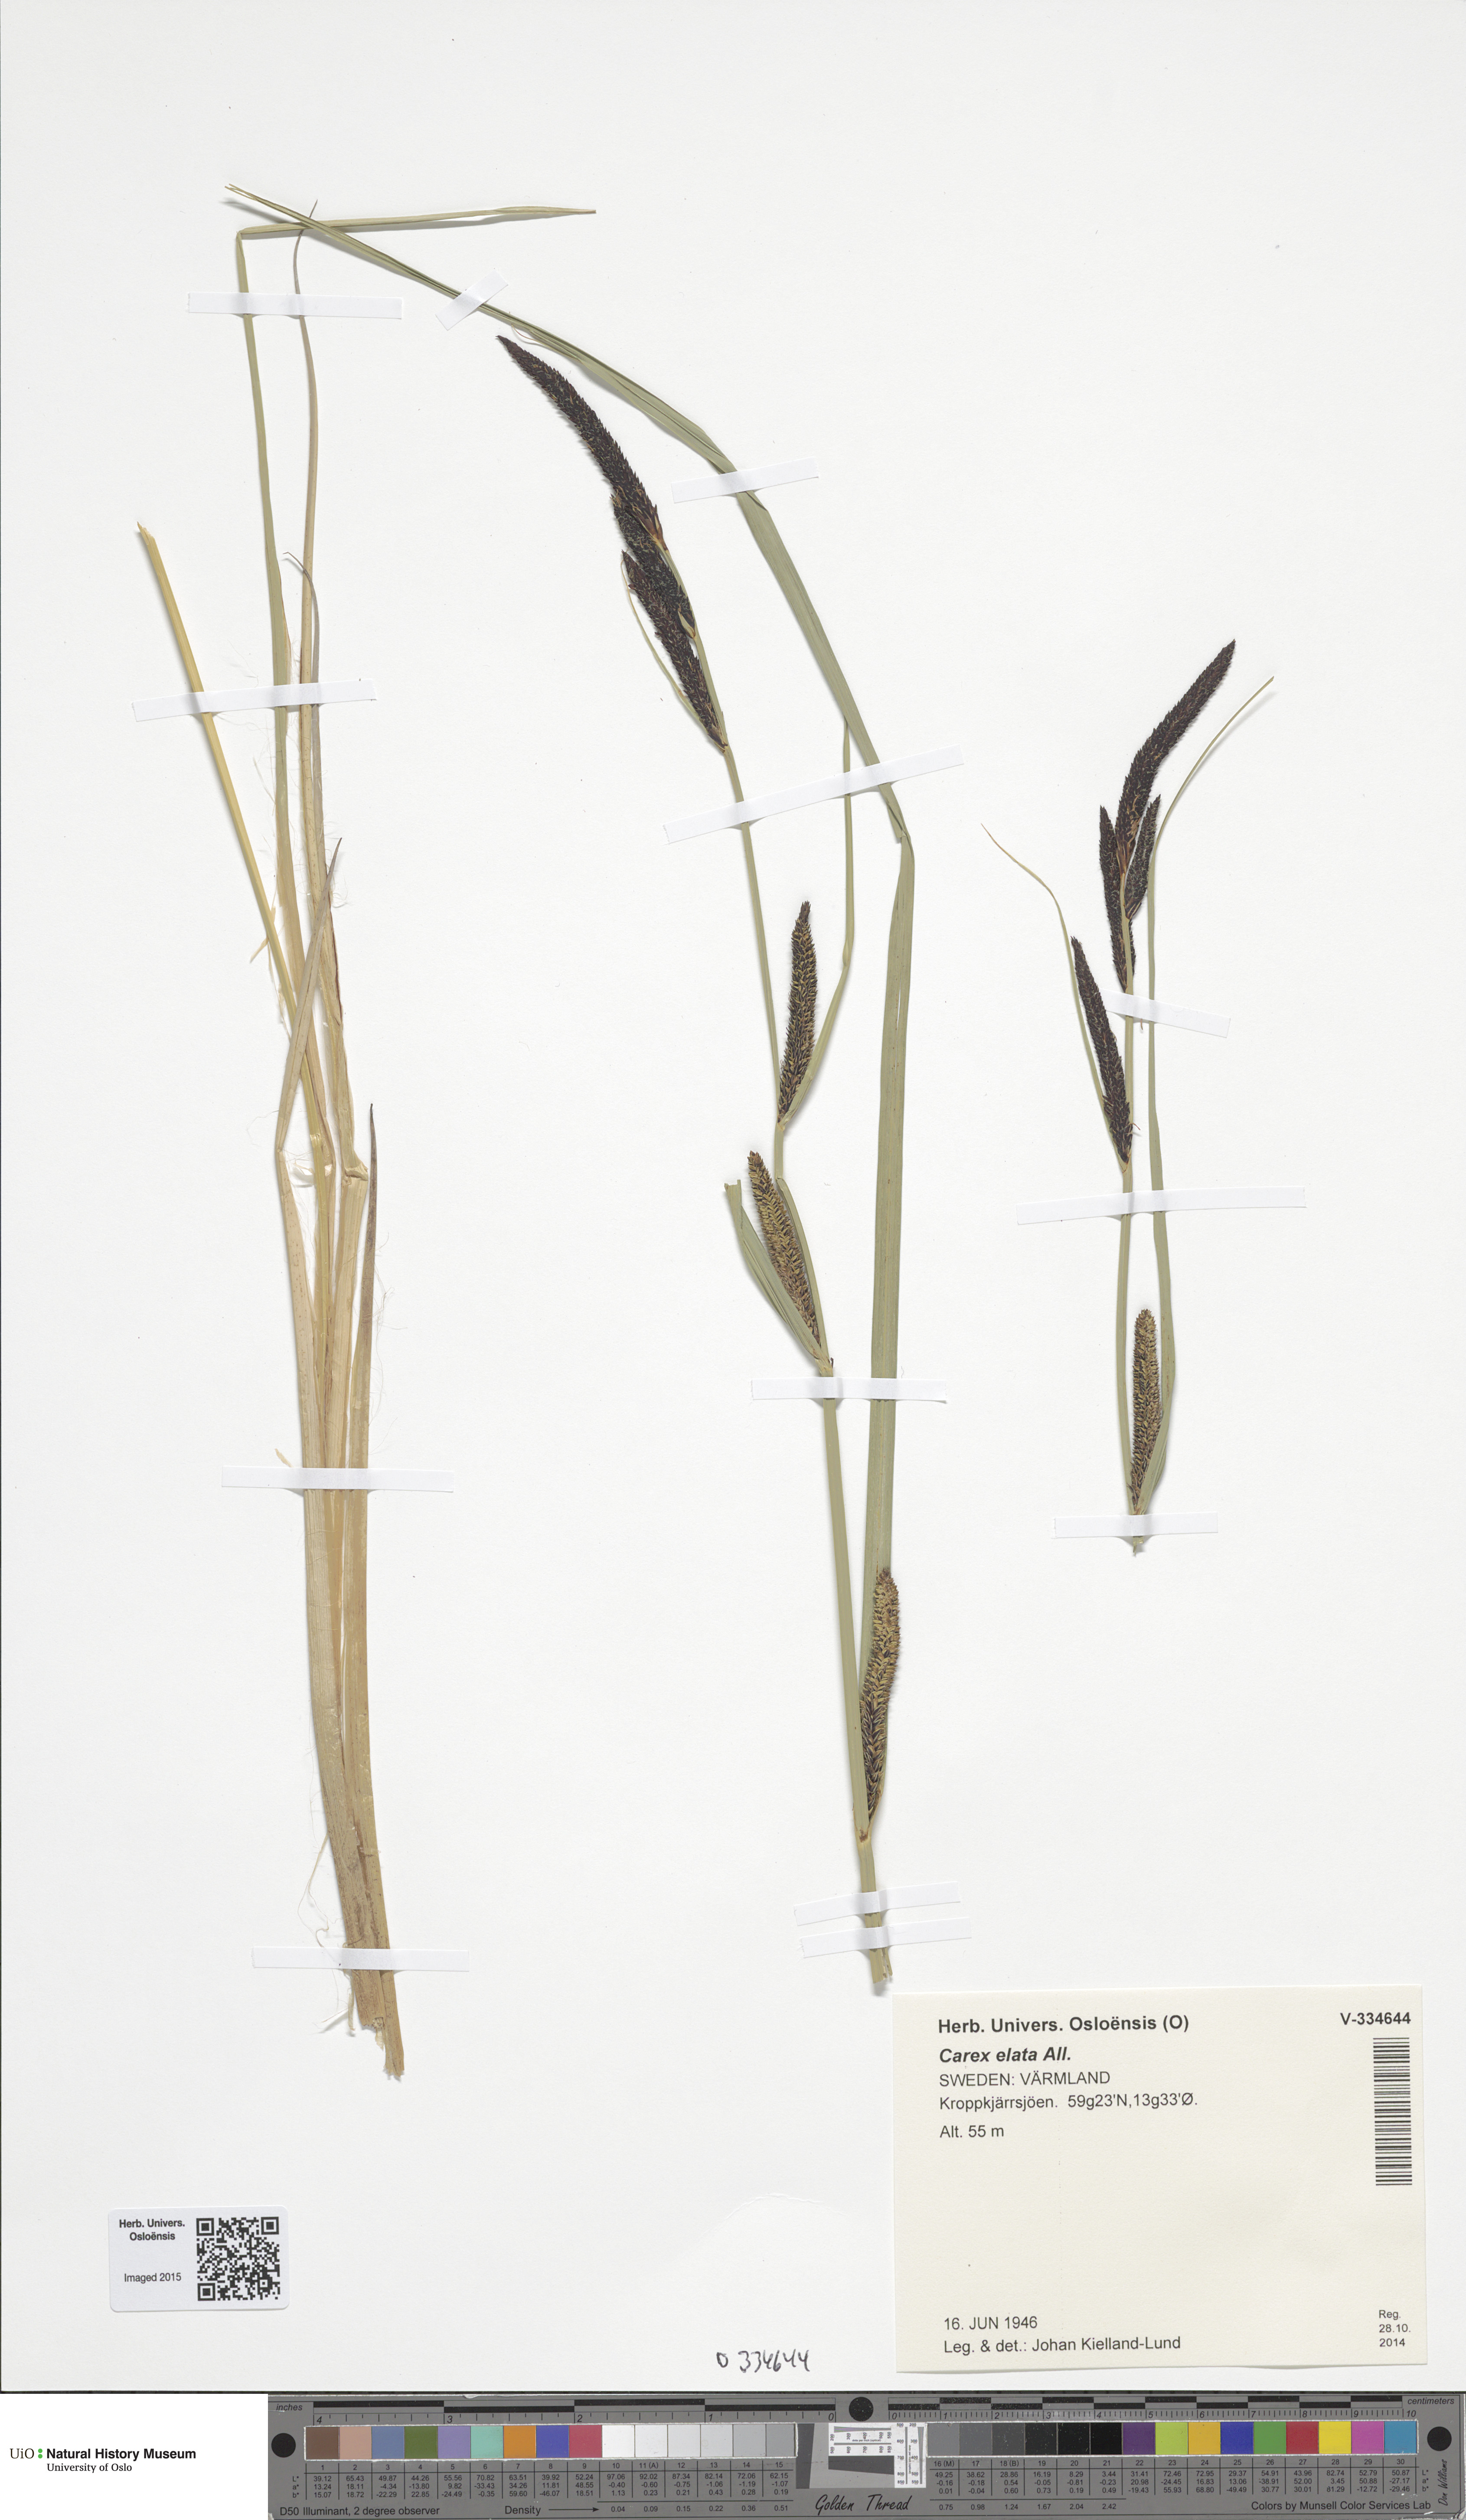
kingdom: Plantae
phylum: Tracheophyta
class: Liliopsida
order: Poales
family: Cyperaceae
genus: Carex
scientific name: Carex elata
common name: Tufted sedge
